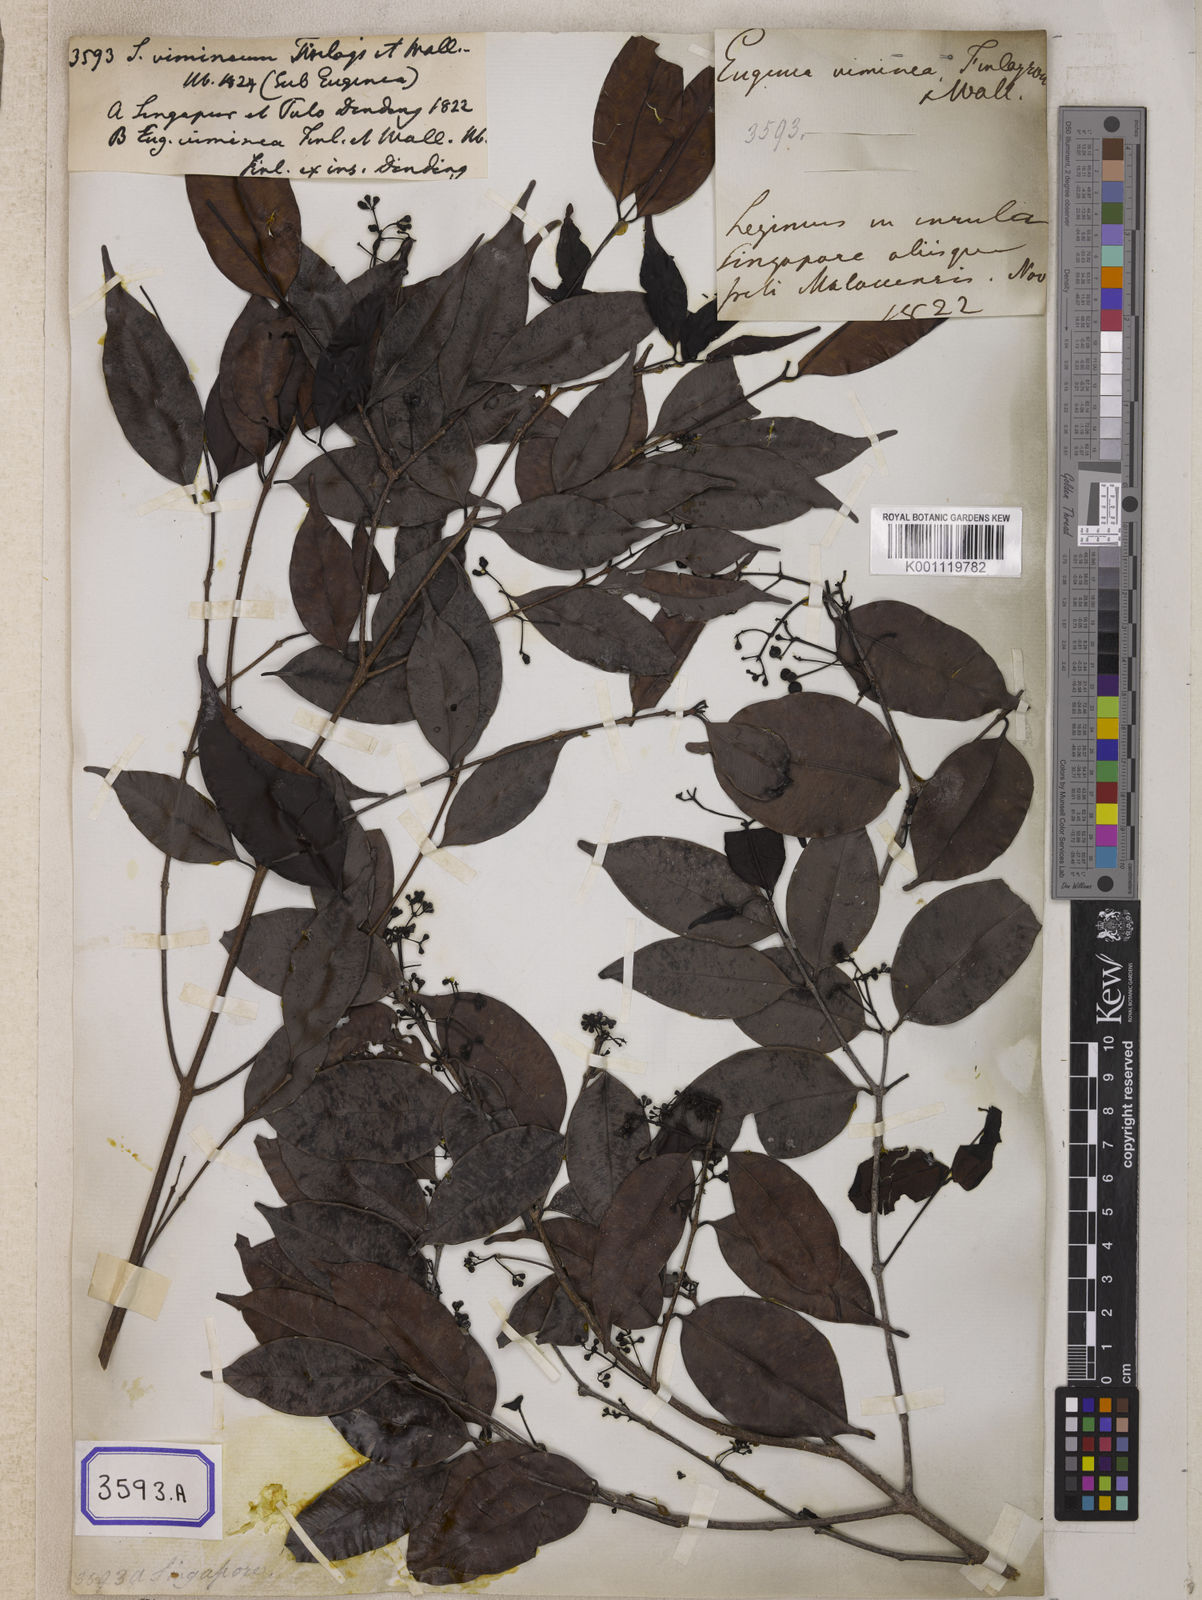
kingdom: Plantae
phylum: Tracheophyta
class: Magnoliopsida
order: Myrtales
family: Myrtaceae
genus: Syzygium
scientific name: Syzygium
